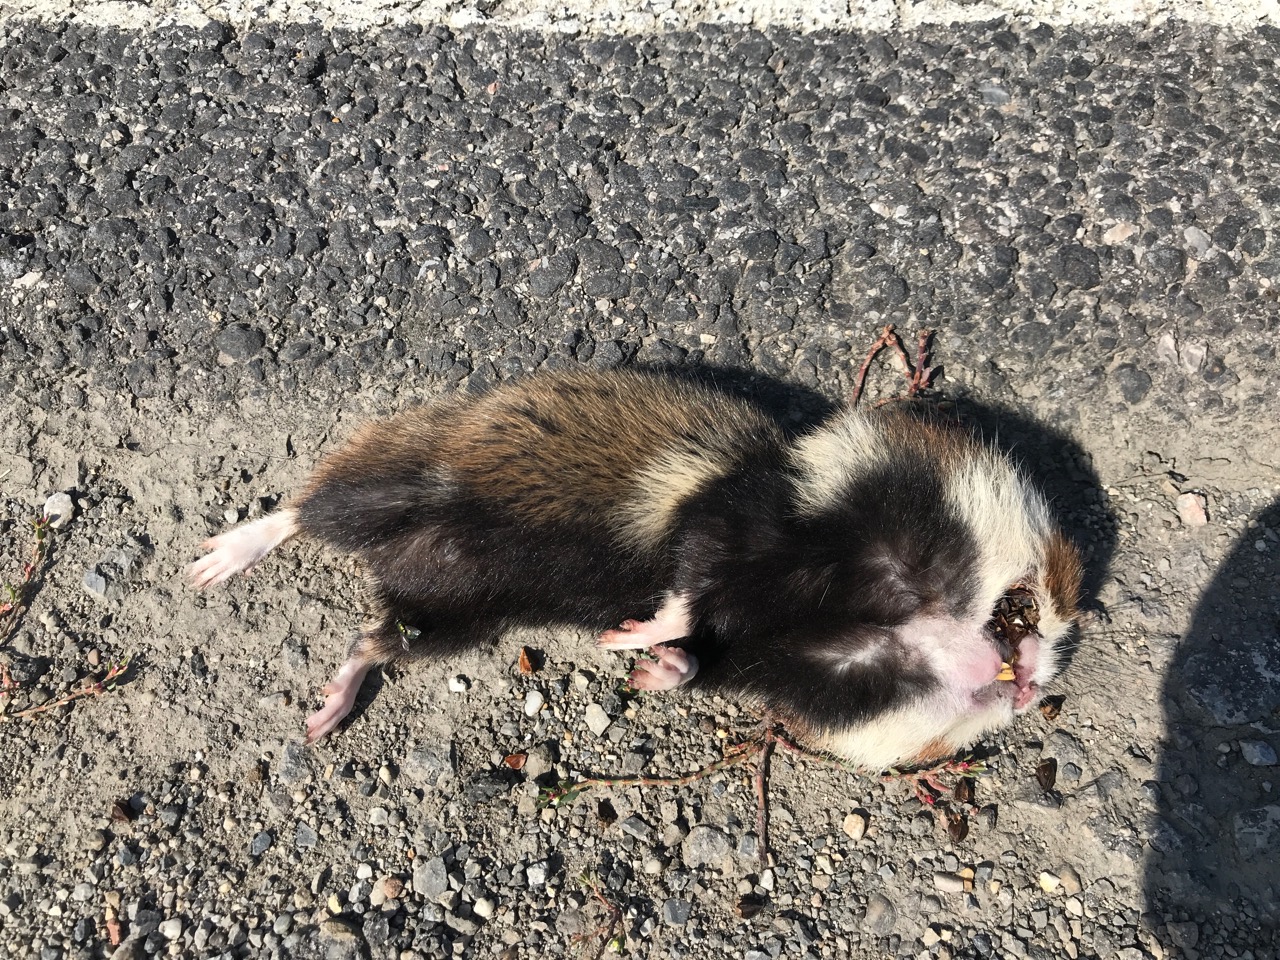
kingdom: Animalia
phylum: Chordata
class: Mammalia
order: Rodentia
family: Cricetidae
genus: Cricetus
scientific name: Cricetus cricetus
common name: Common hamster
